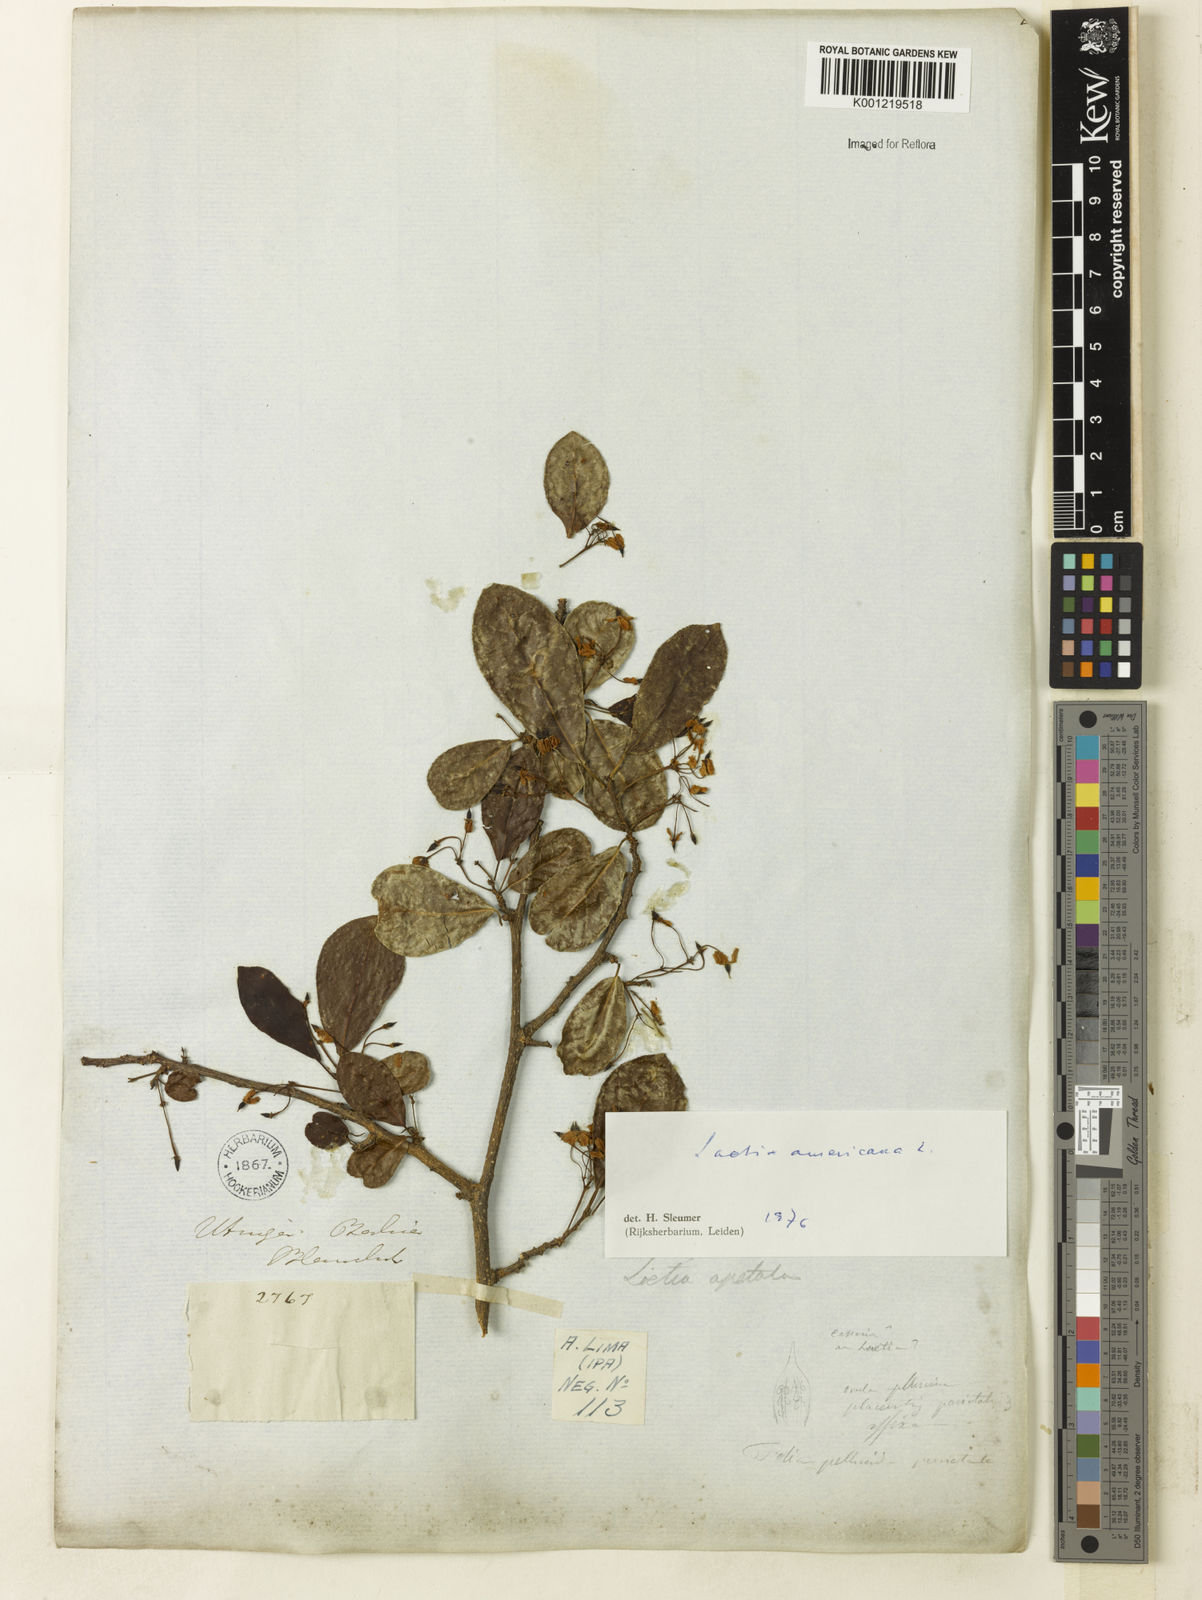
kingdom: Plantae
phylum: Tracheophyta
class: Magnoliopsida
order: Malpighiales
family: Salicaceae
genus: Casearia
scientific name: Casearia americana
